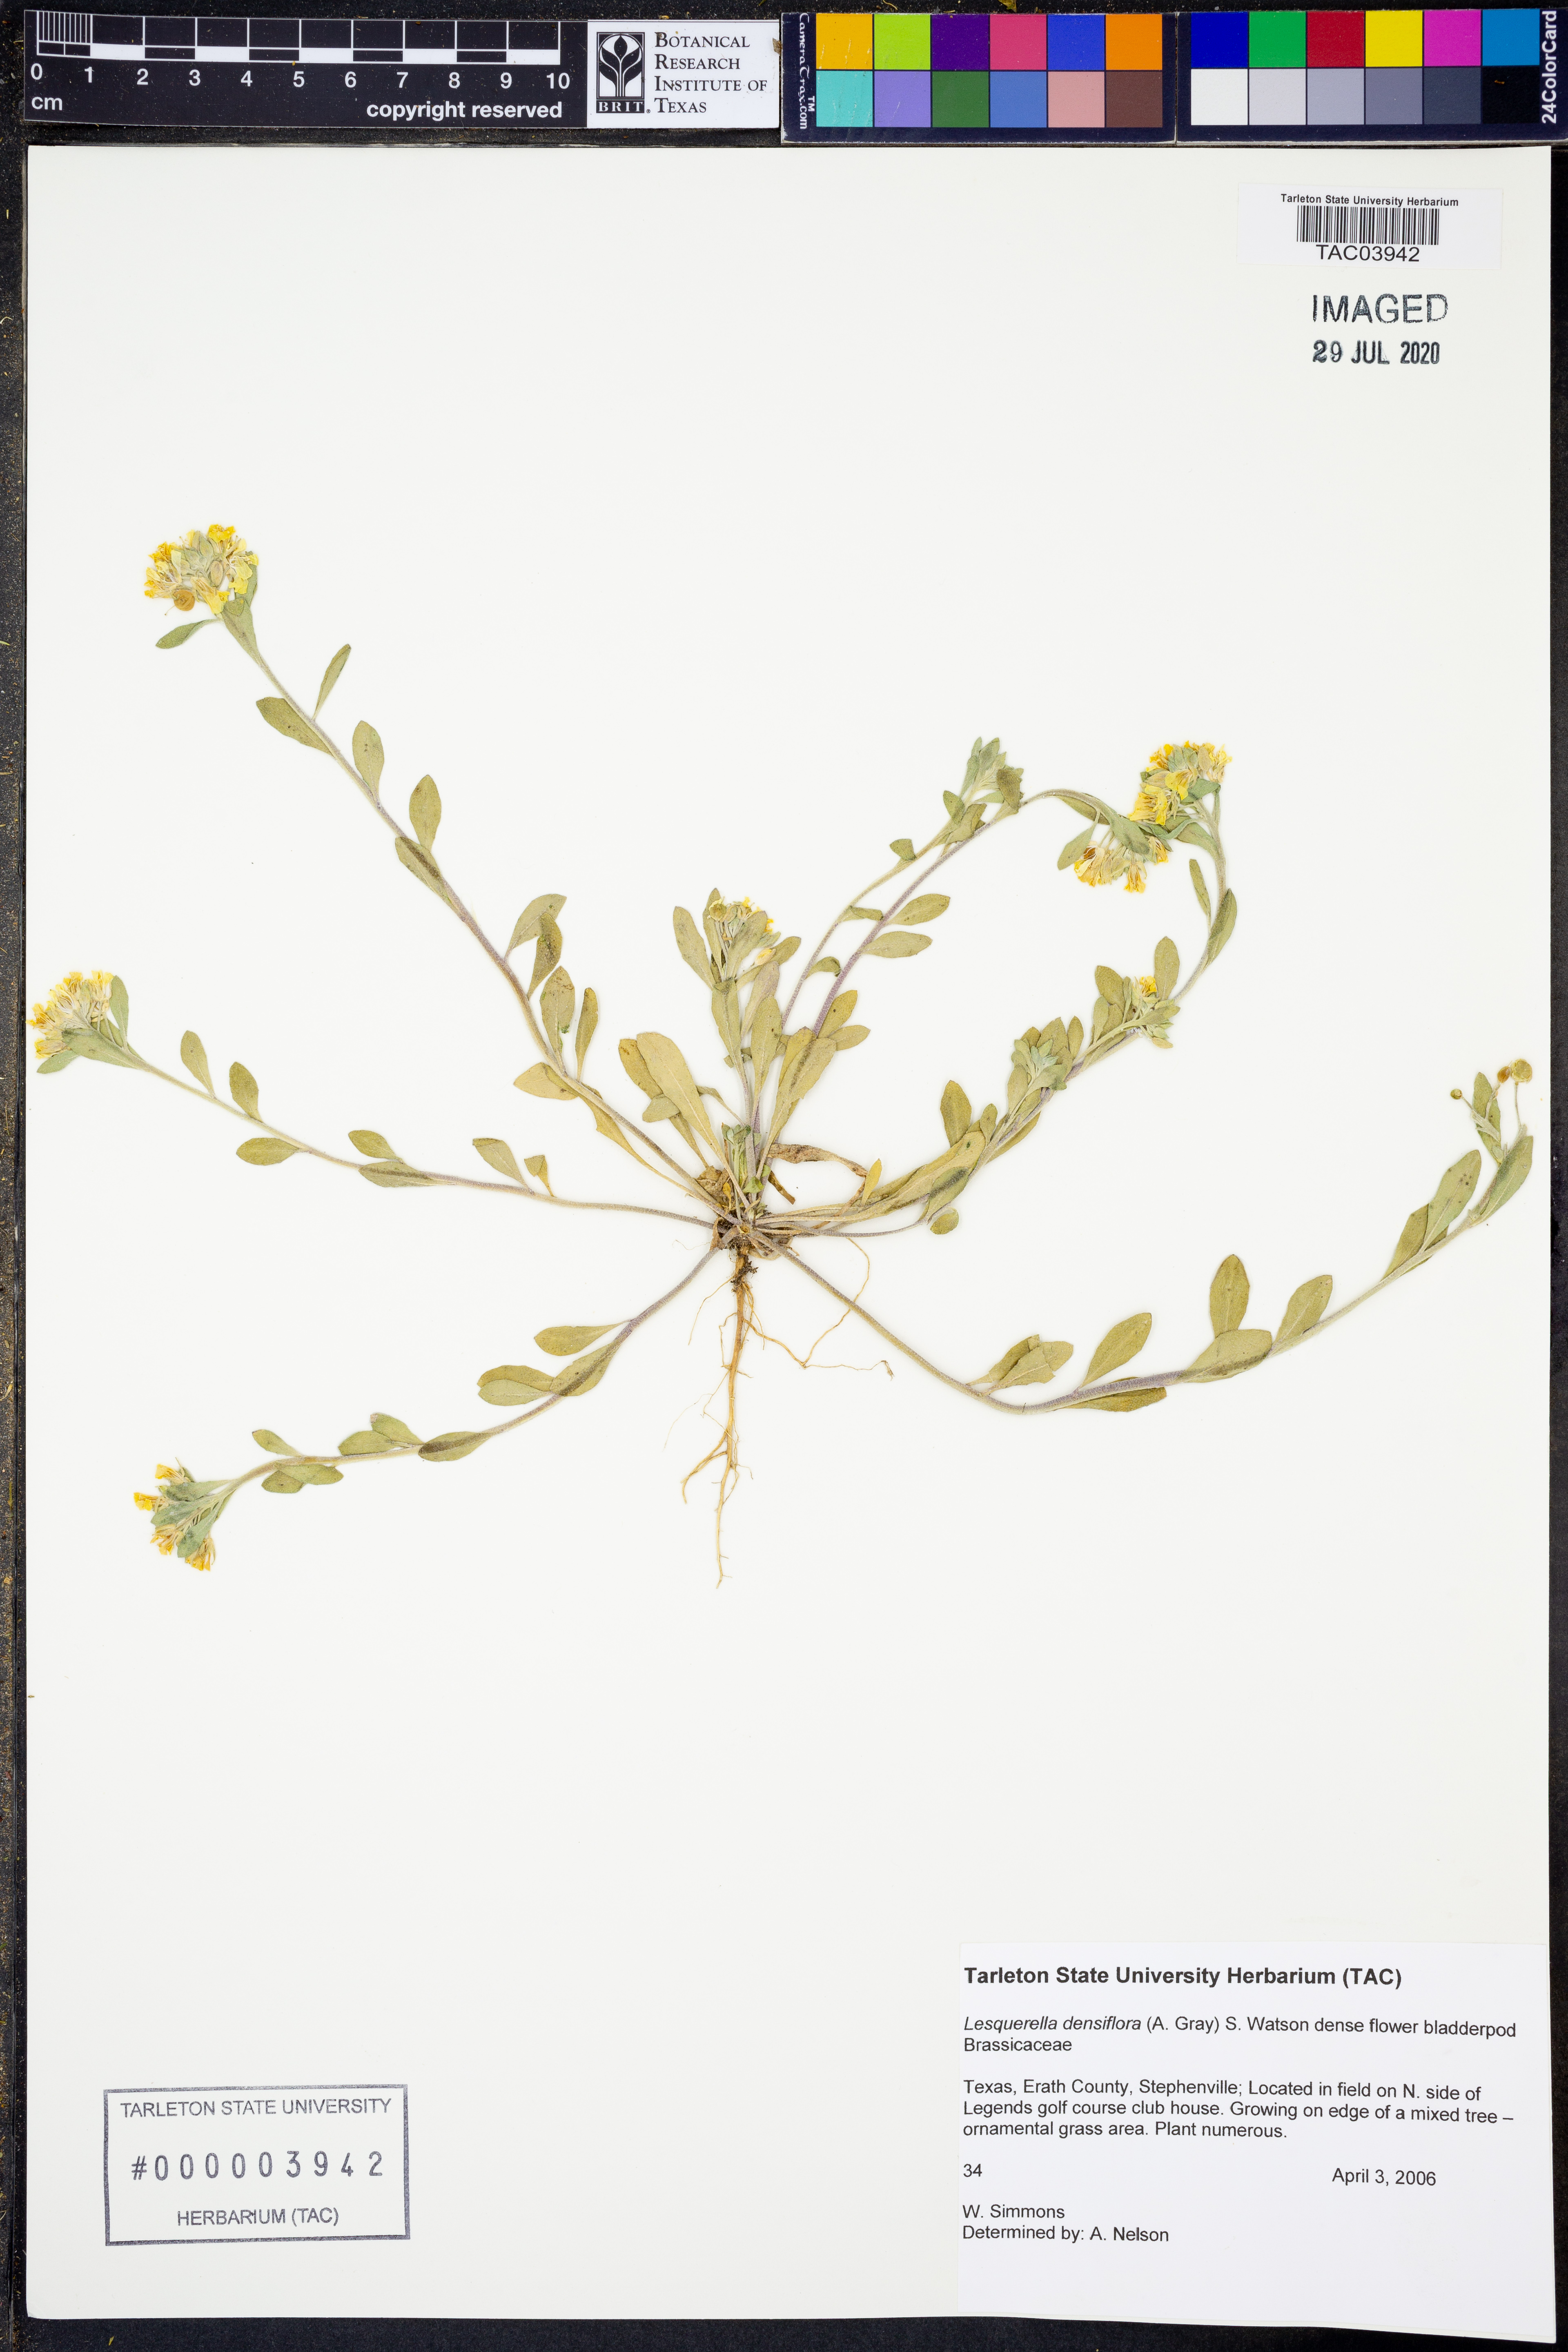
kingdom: Plantae
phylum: Tracheophyta
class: Magnoliopsida
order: Brassicales
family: Brassicaceae
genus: Physaria
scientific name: Physaria densiflora
